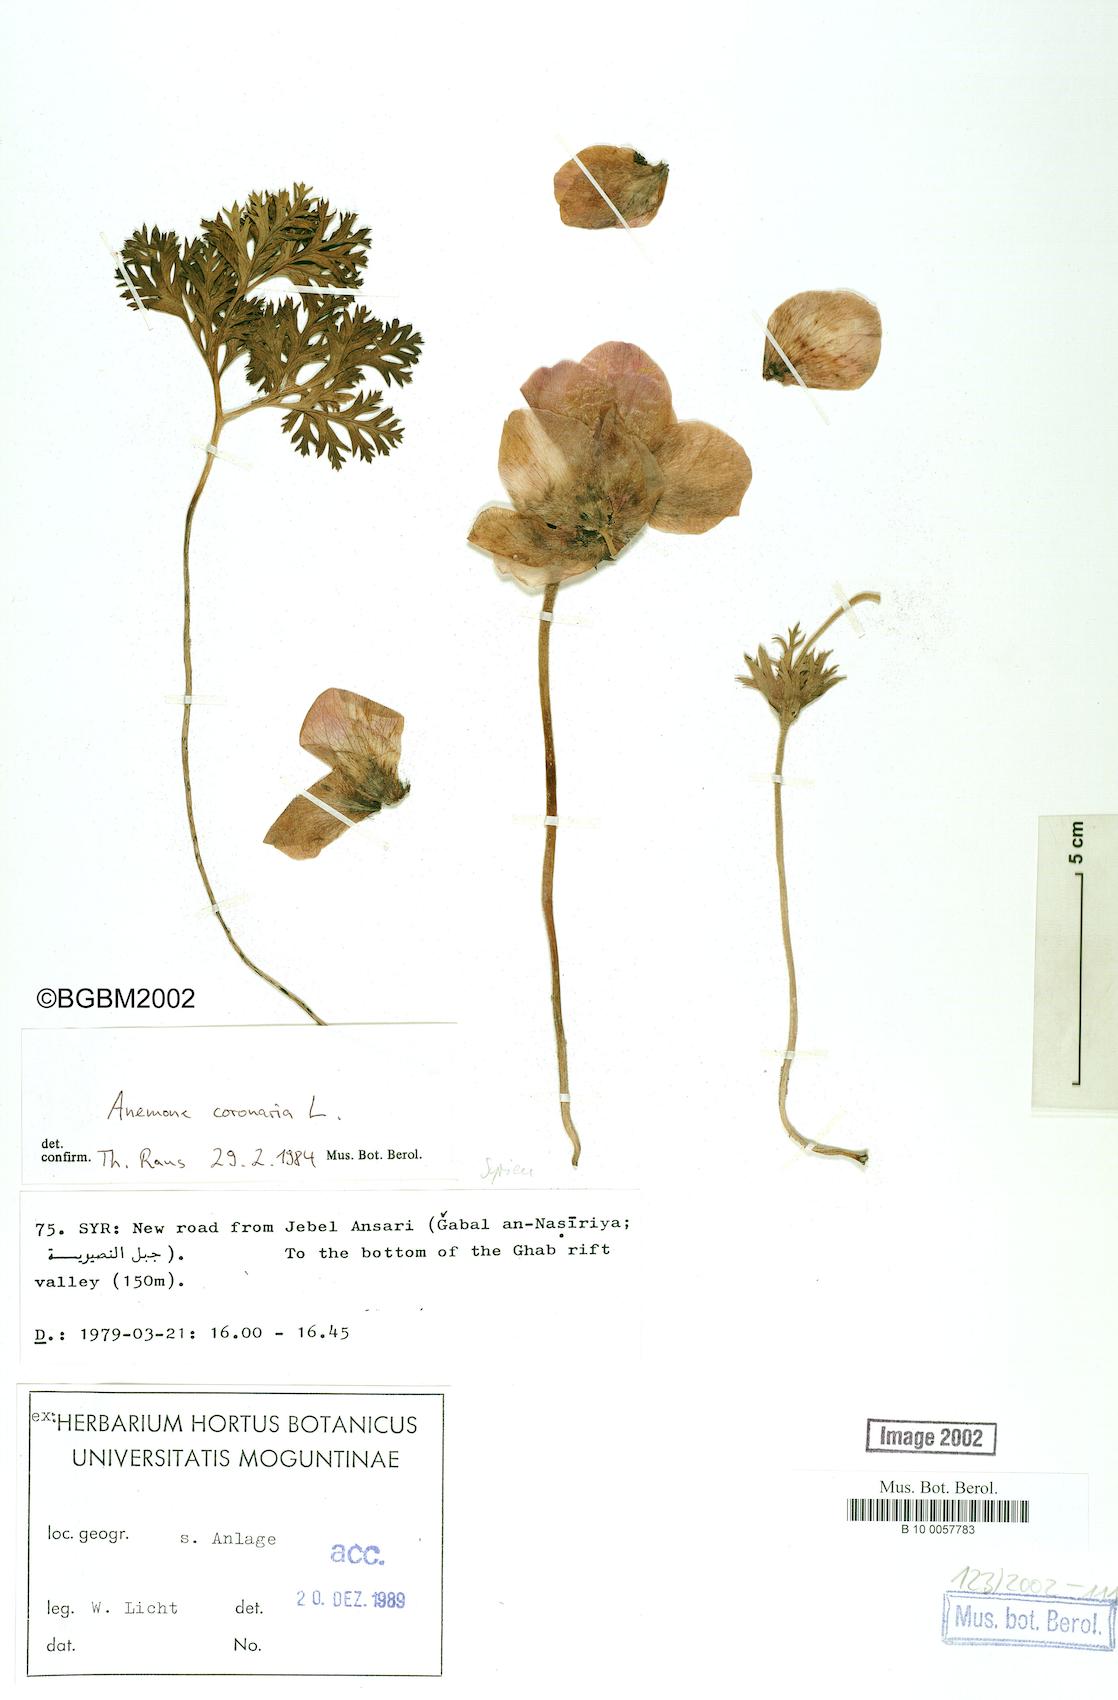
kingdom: Plantae
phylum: Tracheophyta
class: Magnoliopsida
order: Ranunculales
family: Ranunculaceae
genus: Anemone
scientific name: Anemone coronaria
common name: Poppy anemone
